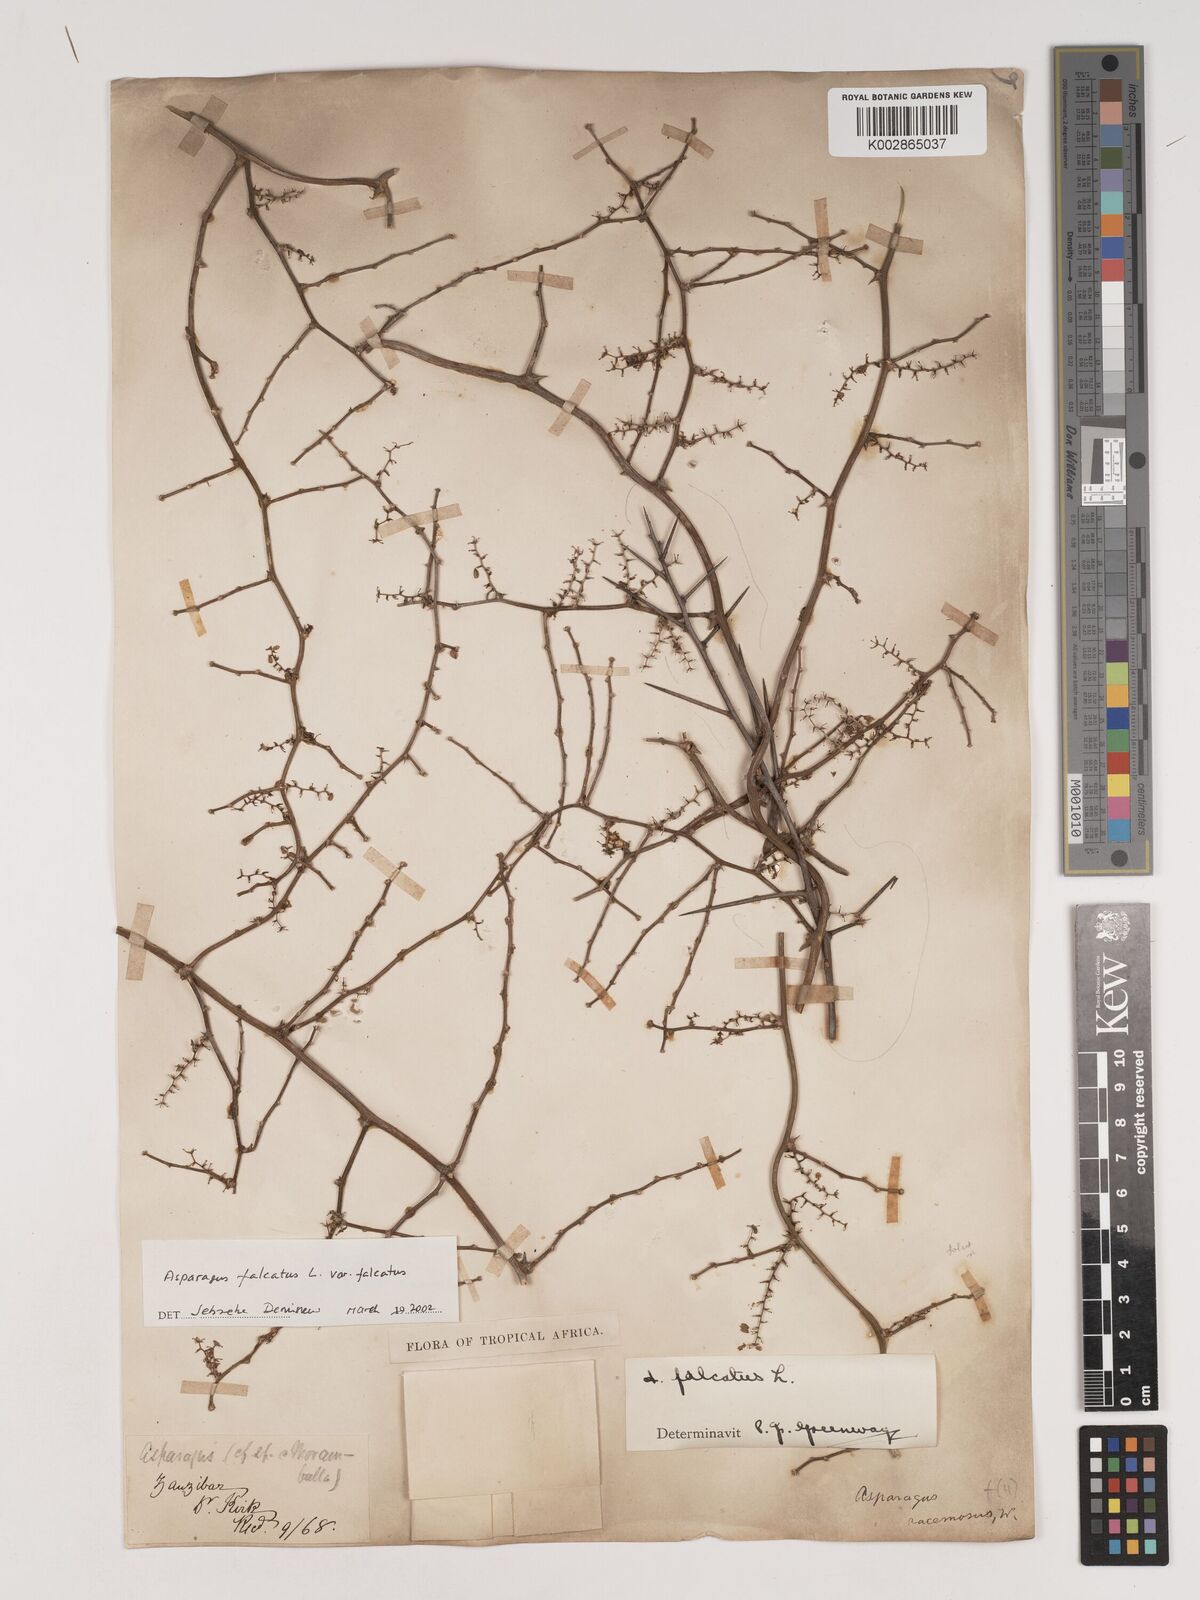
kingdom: Plantae
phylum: Tracheophyta
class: Liliopsida
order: Asparagales
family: Asparagaceae
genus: Asparagus
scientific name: Asparagus falcatus
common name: Asparagus
